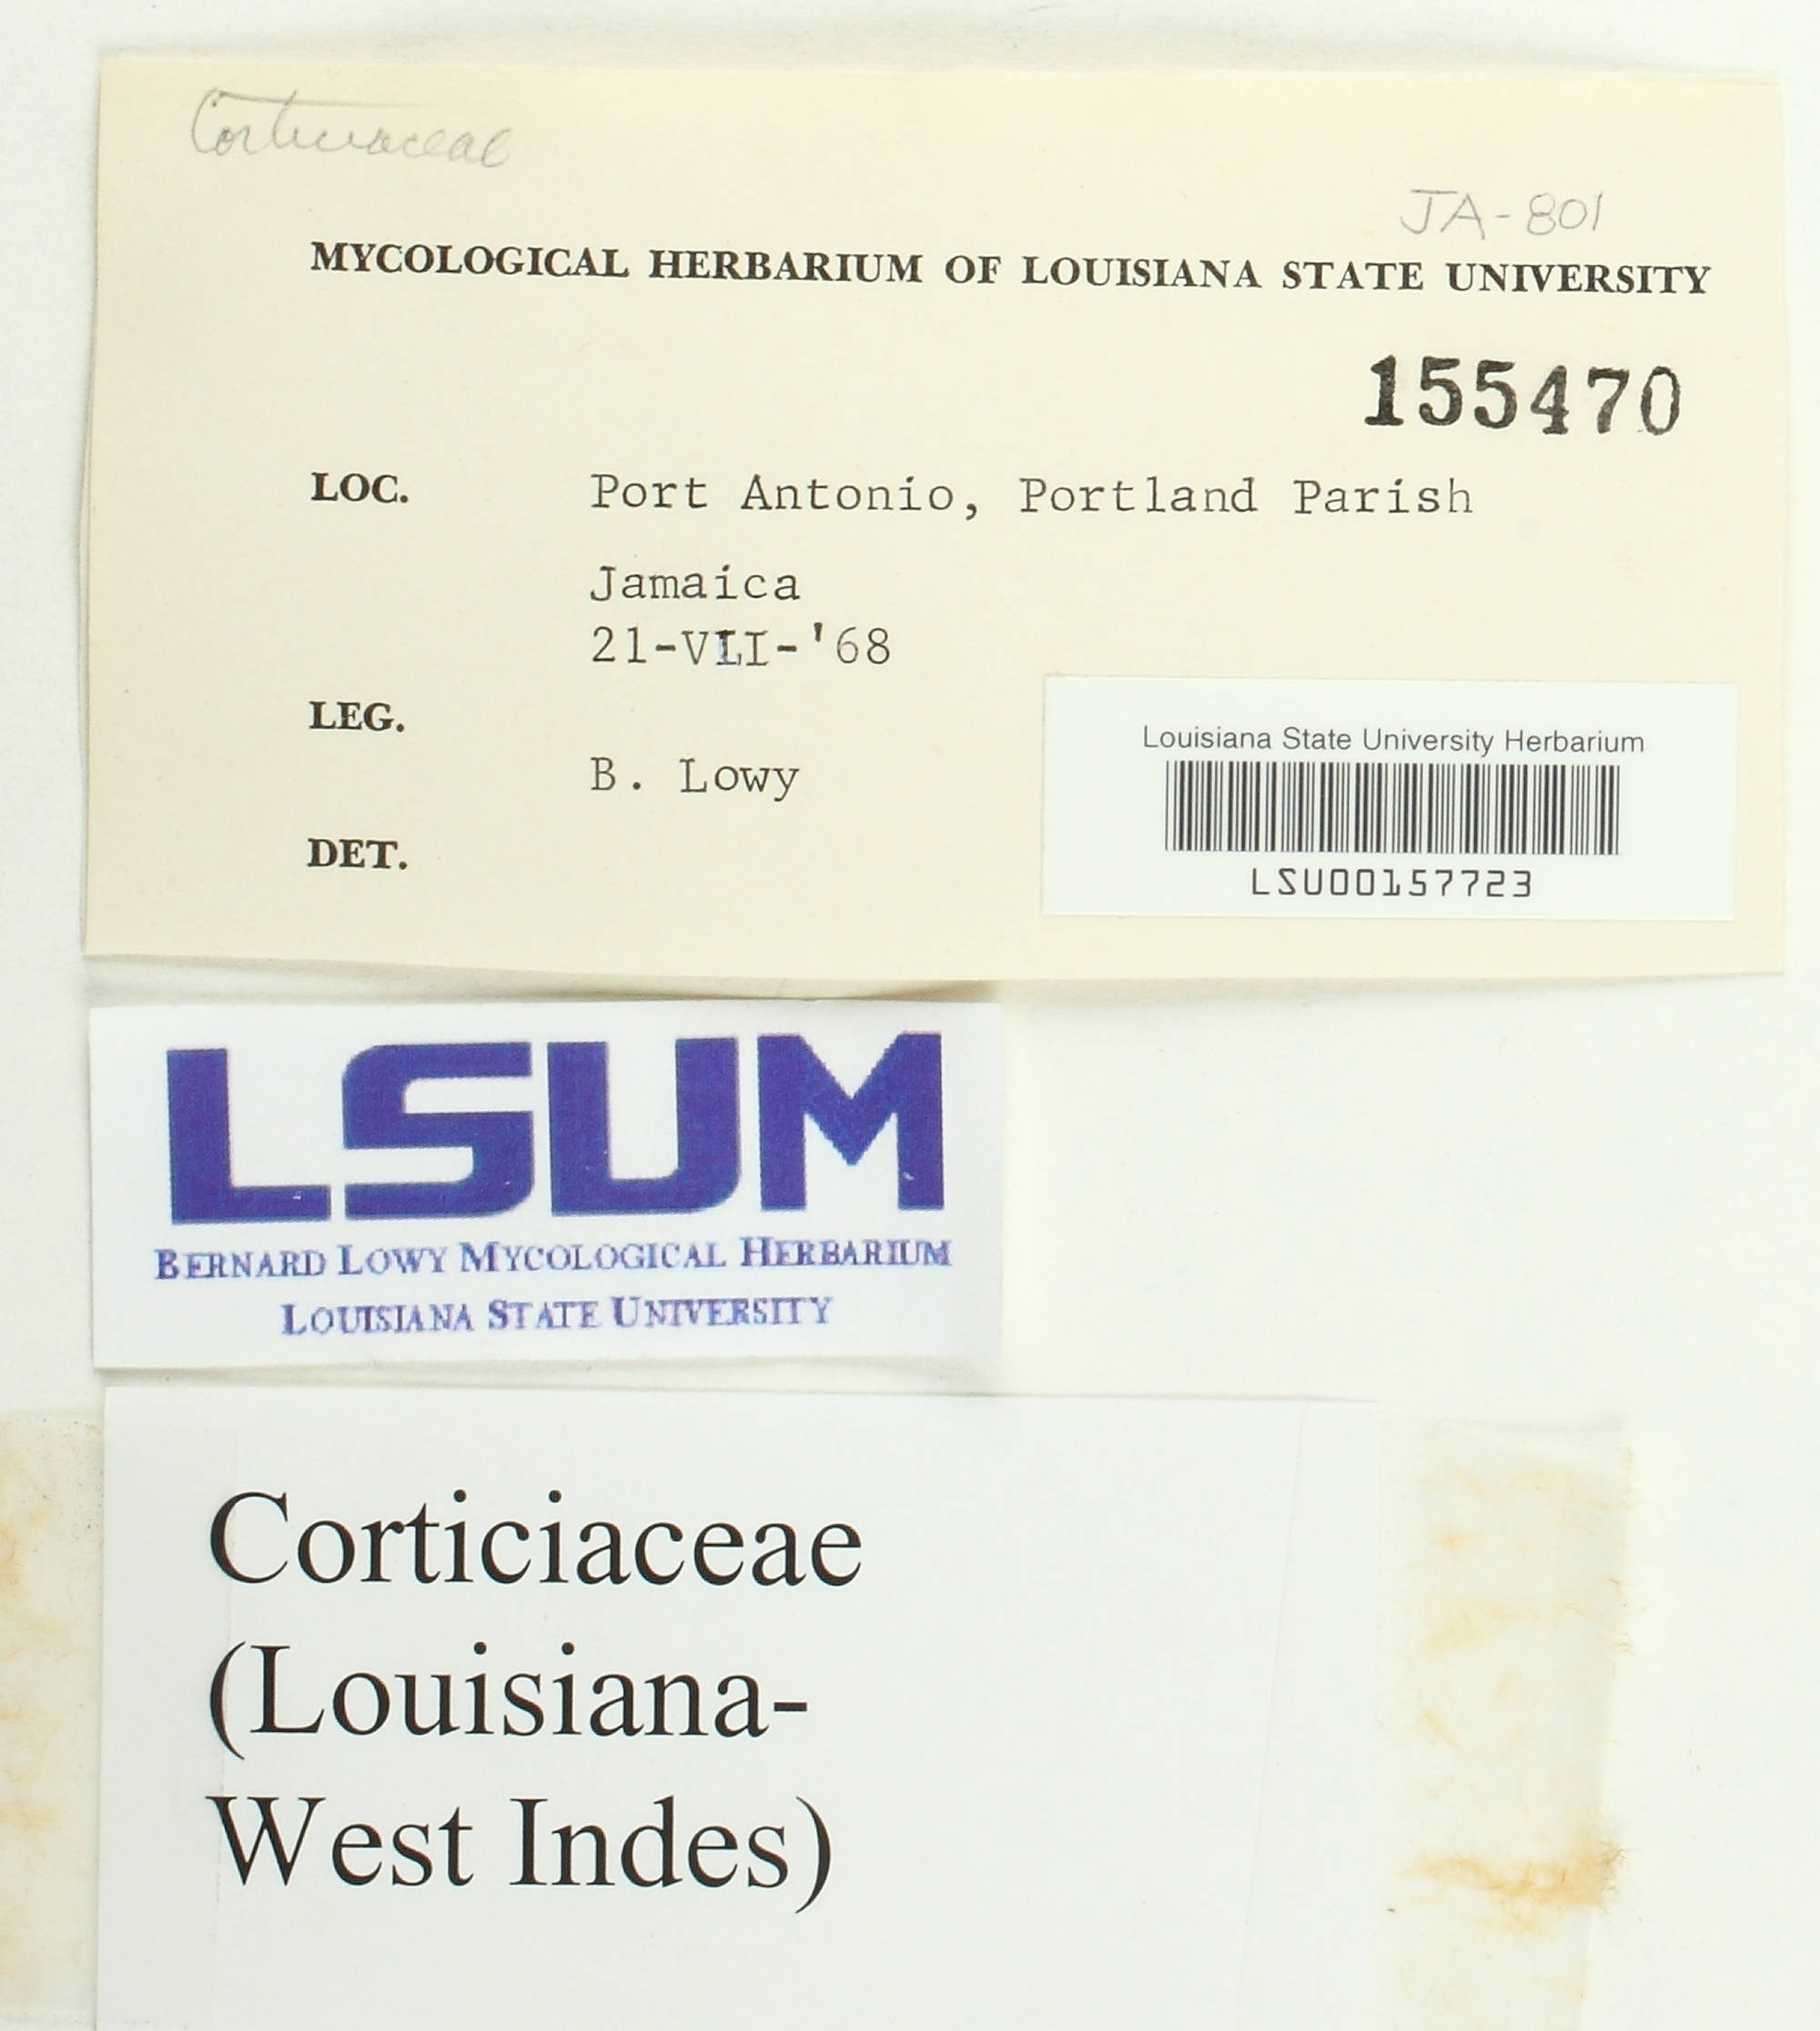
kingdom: Fungi
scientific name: Fungi
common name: Fungi
